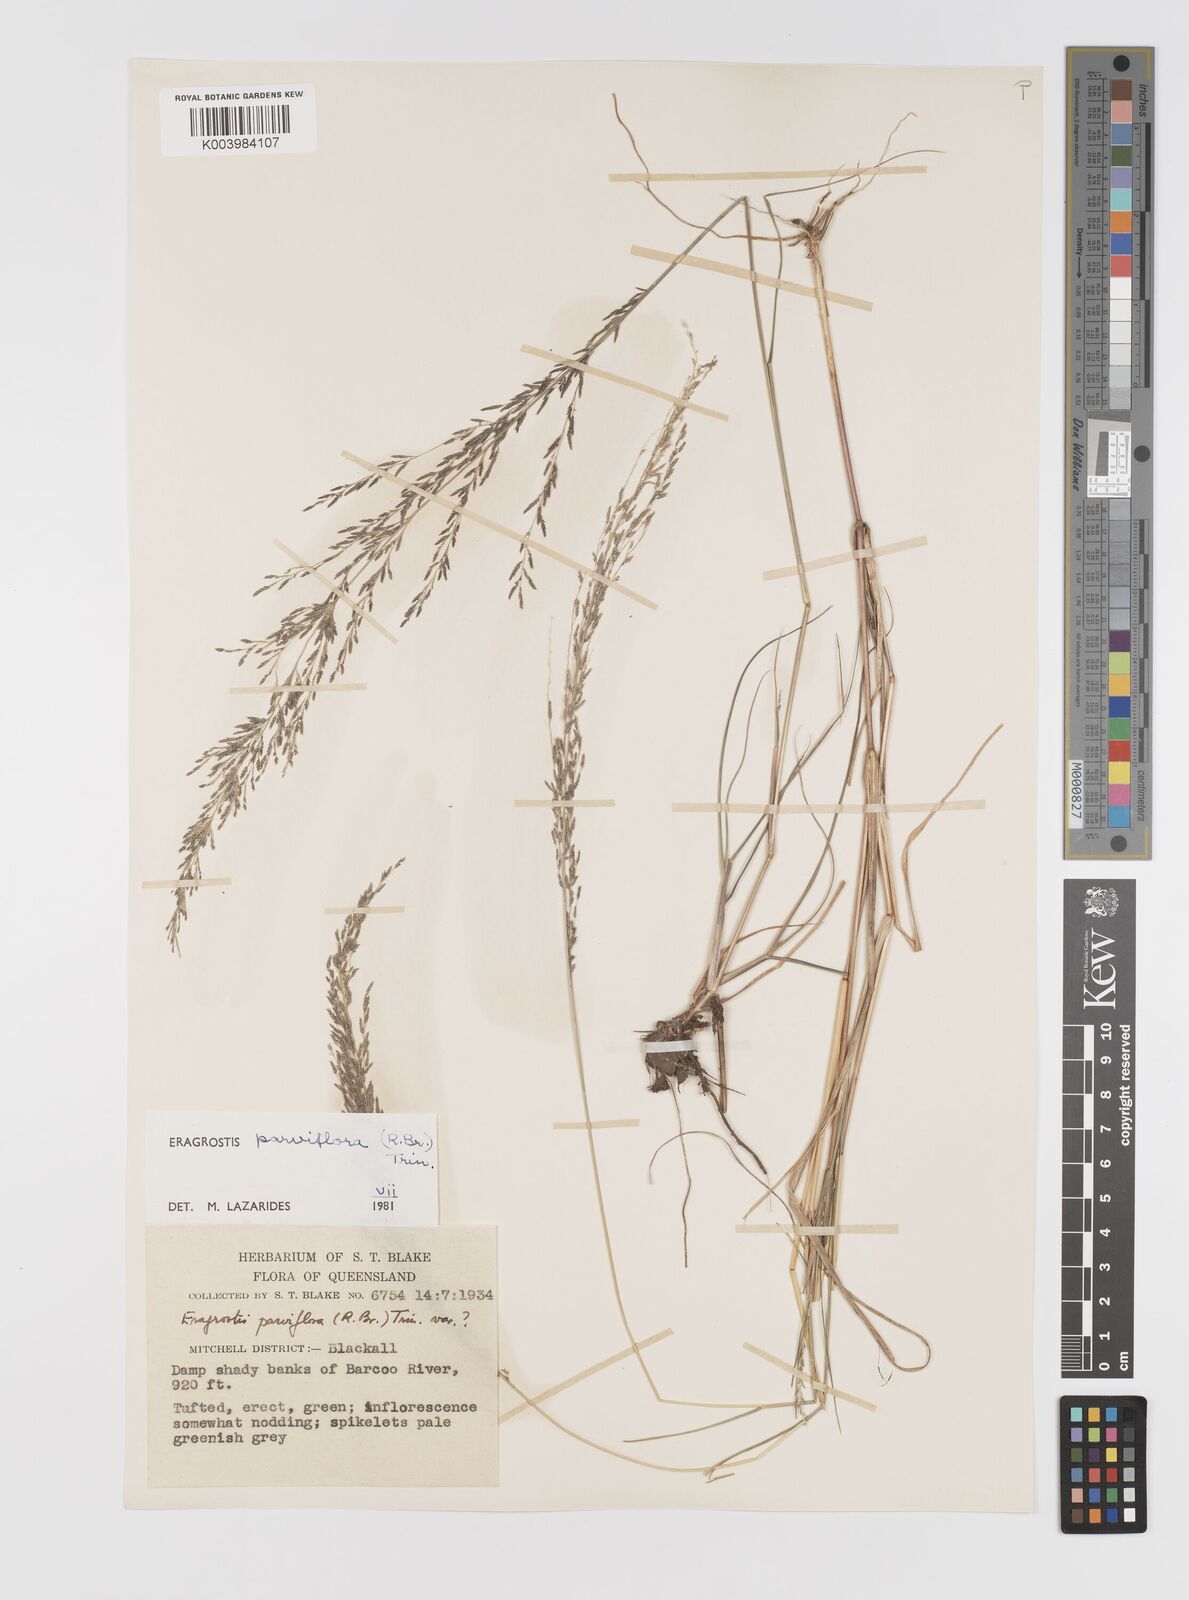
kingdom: Plantae
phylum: Tracheophyta
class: Liliopsida
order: Poales
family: Poaceae
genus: Eragrostis
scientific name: Eragrostis parviflora
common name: Weeping love-grass
